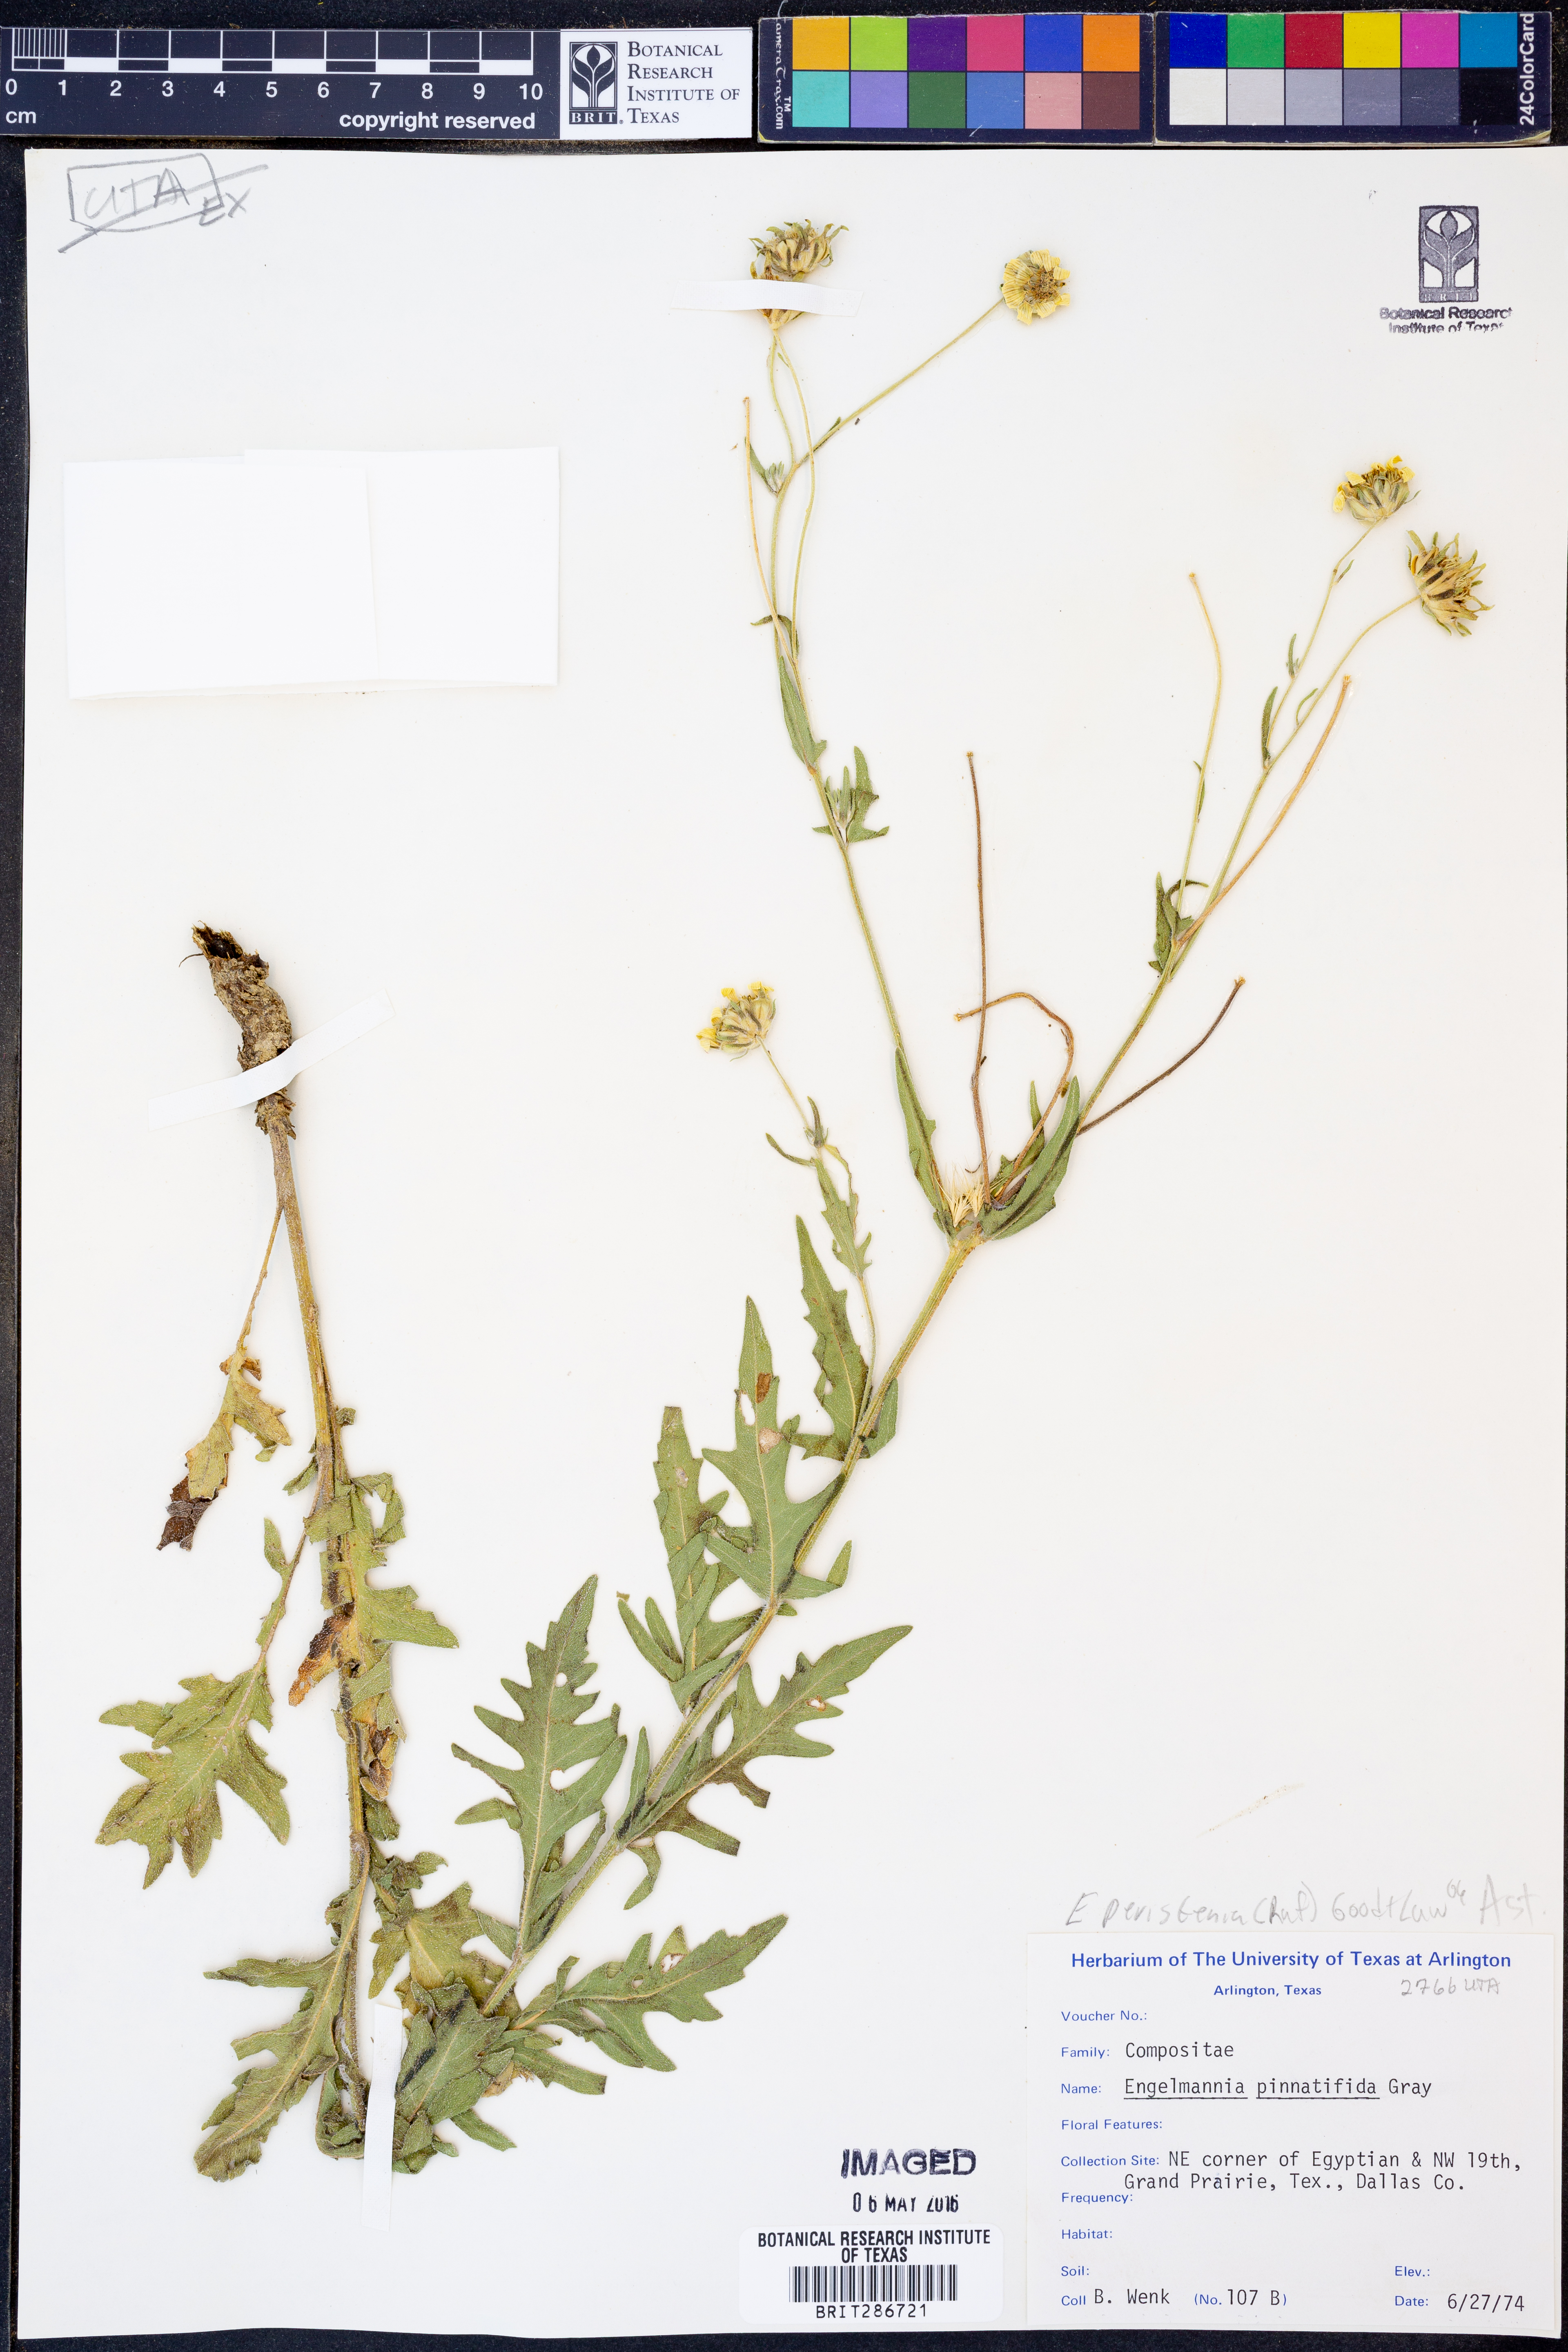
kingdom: Plantae
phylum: Tracheophyta
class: Magnoliopsida
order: Asterales
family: Asteraceae
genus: Engelmannia
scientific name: Engelmannia peristenia
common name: Engelmann's daisy
